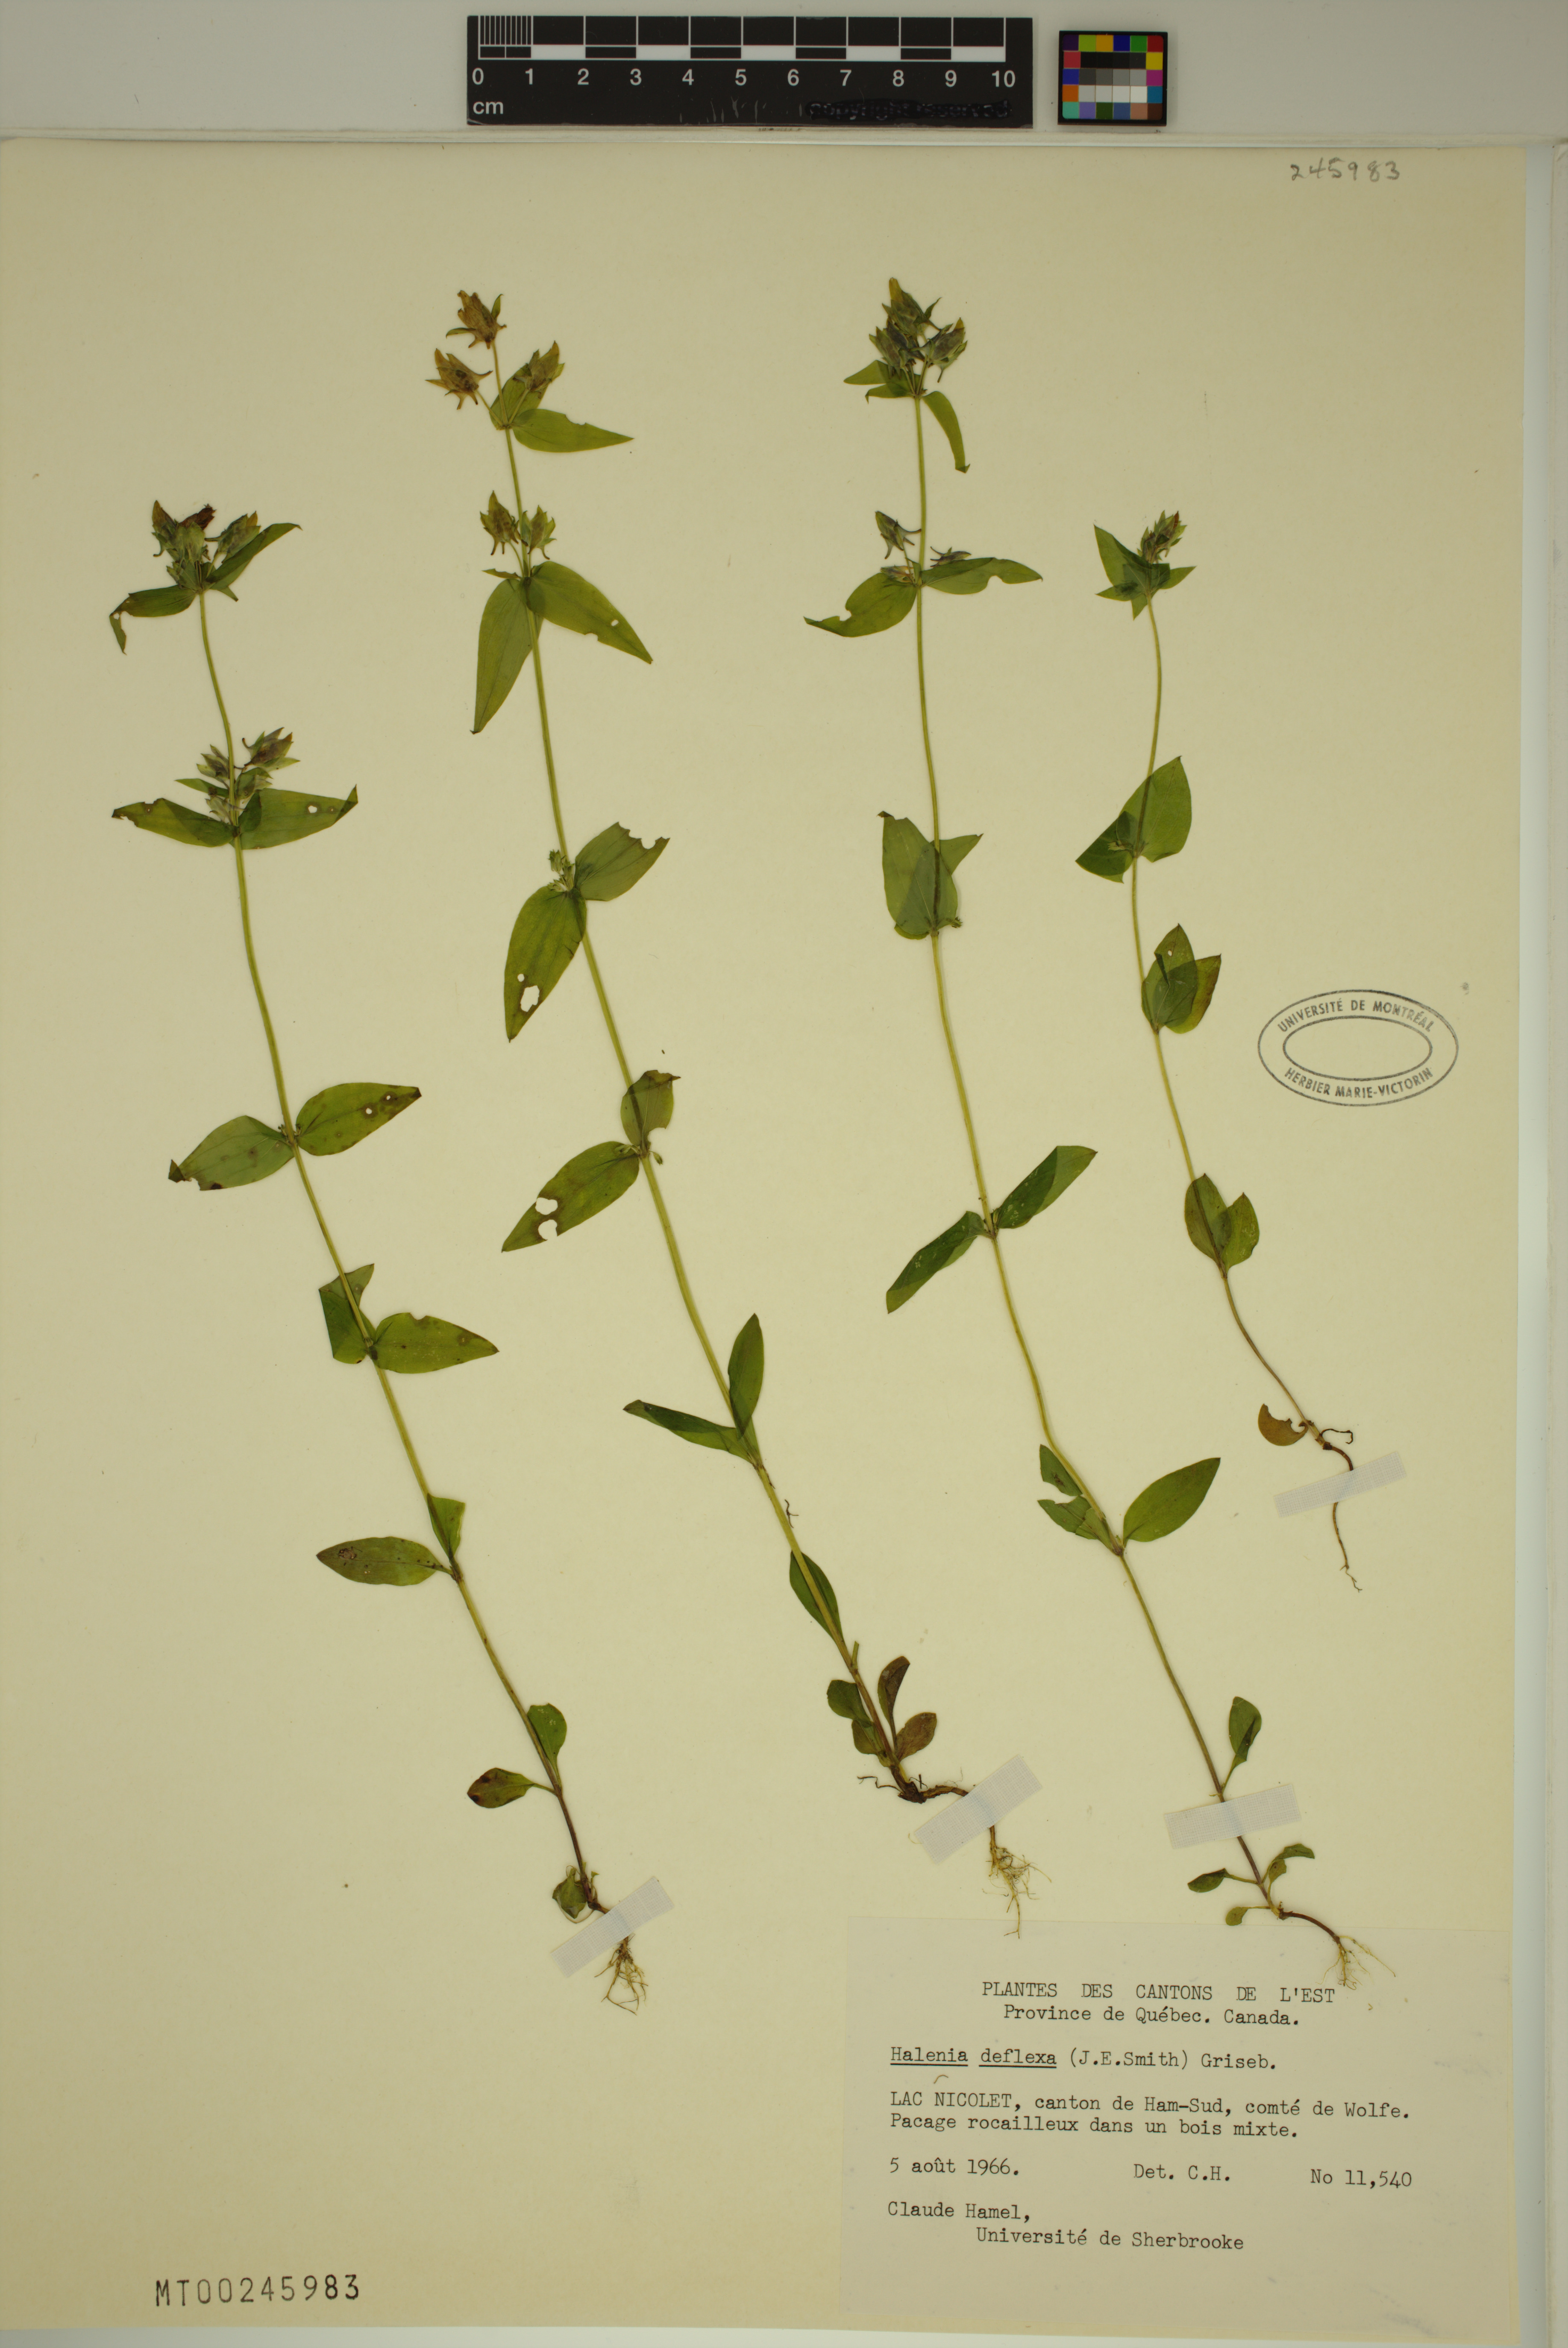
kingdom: Plantae
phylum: Tracheophyta
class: Magnoliopsida
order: Gentianales
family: Gentianaceae
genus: Halenia
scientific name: Halenia deflexa
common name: American spurred gentian
